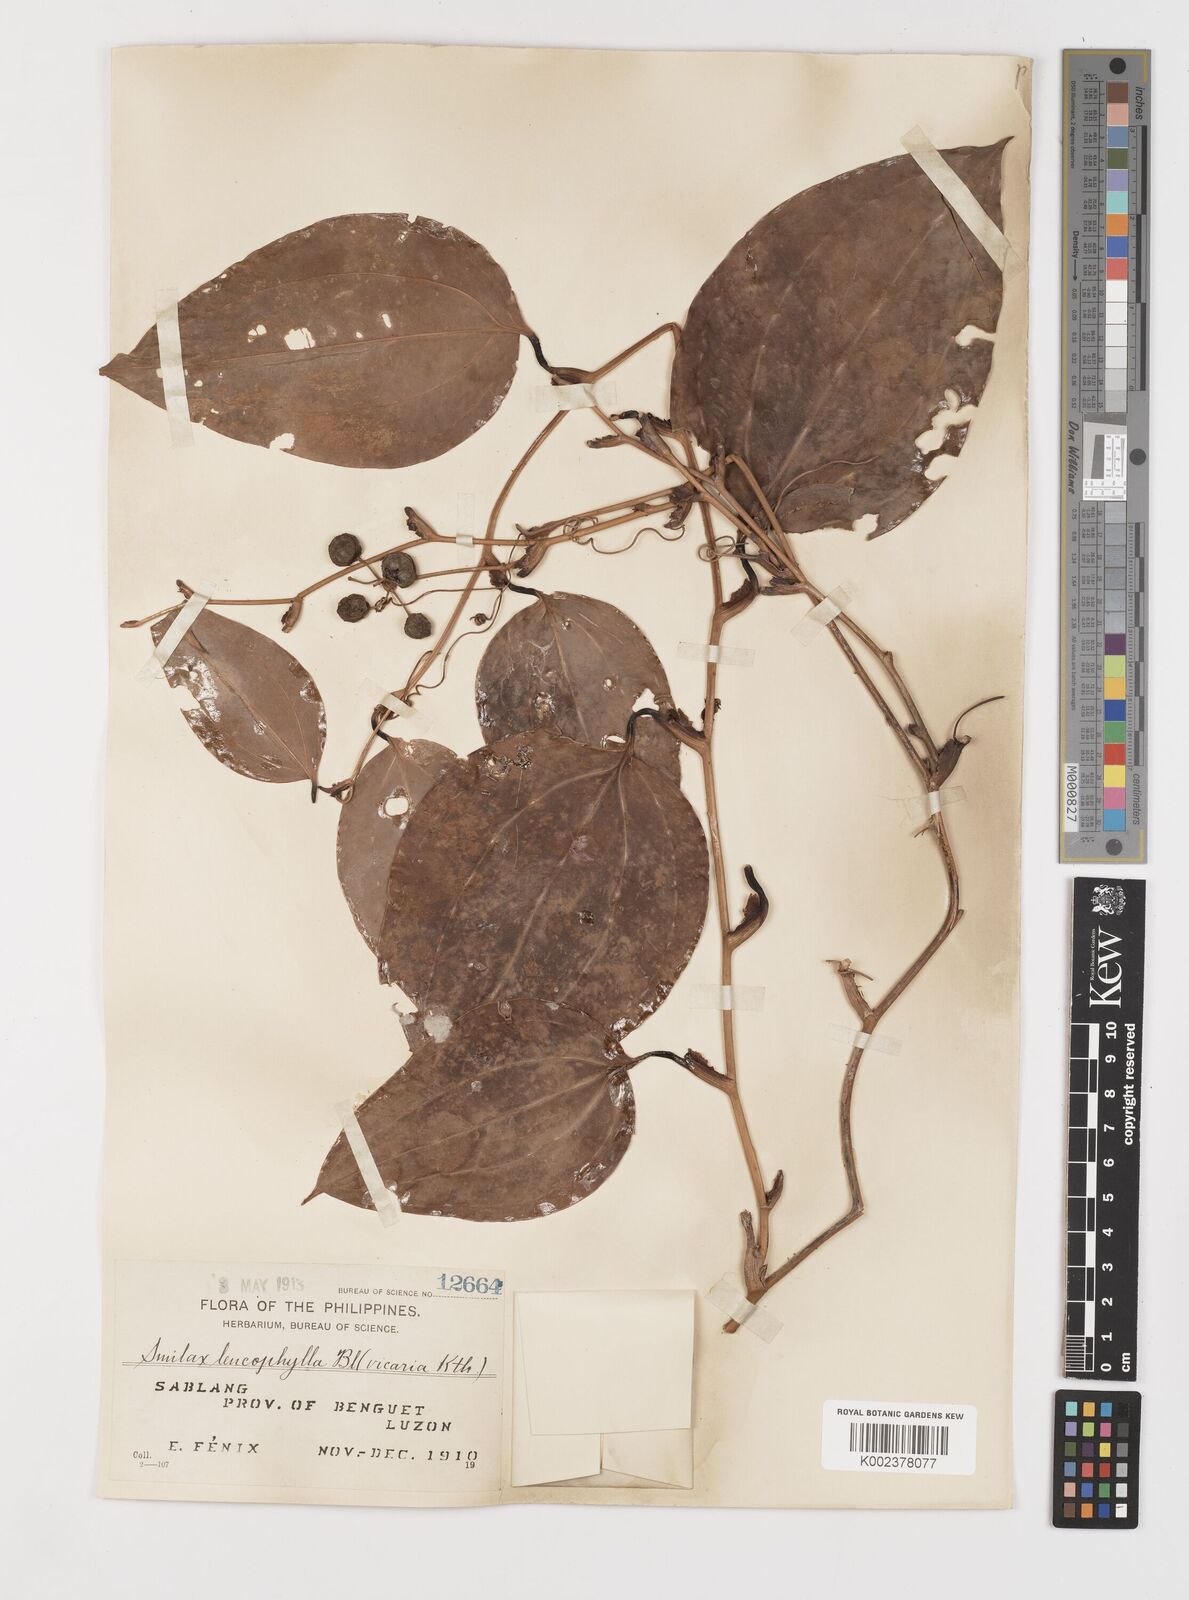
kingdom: Plantae
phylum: Tracheophyta
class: Liliopsida
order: Liliales
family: Smilacaceae
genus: Smilax
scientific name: Smilax leucophylla
